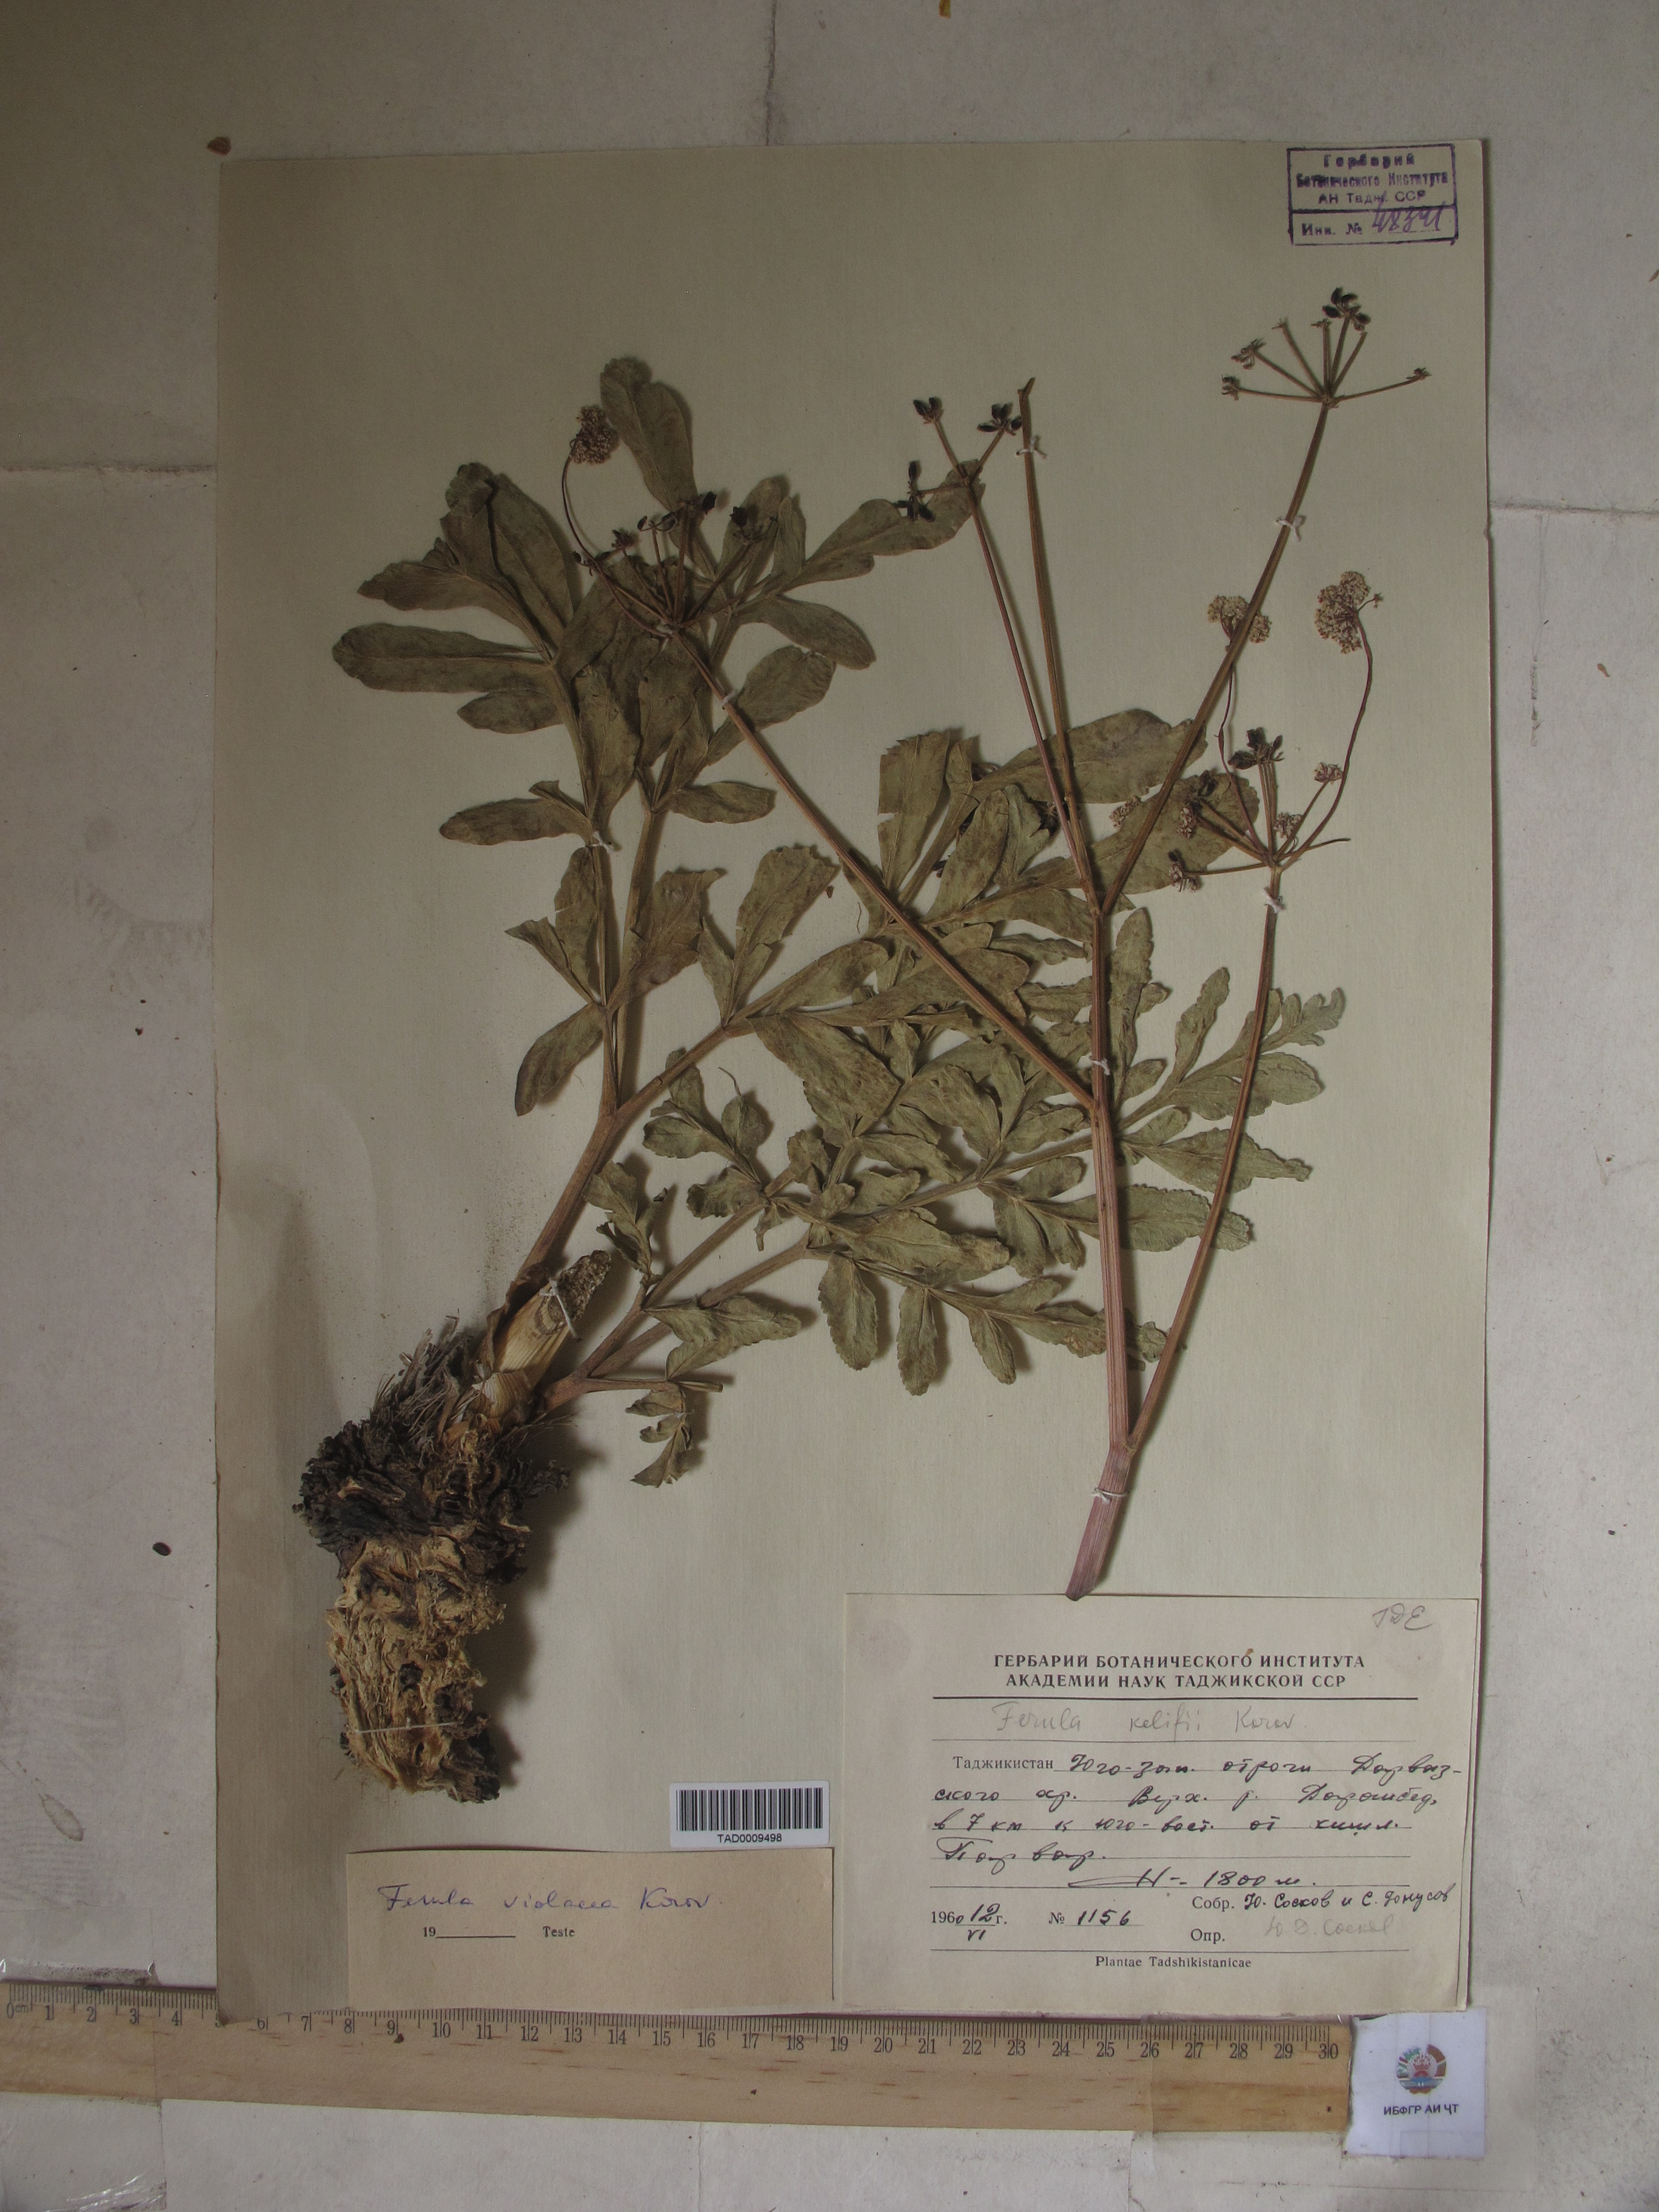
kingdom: Plantae
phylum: Tracheophyta
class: Magnoliopsida
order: Apiales
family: Apiaceae
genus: Ferula
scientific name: Ferula violacea
